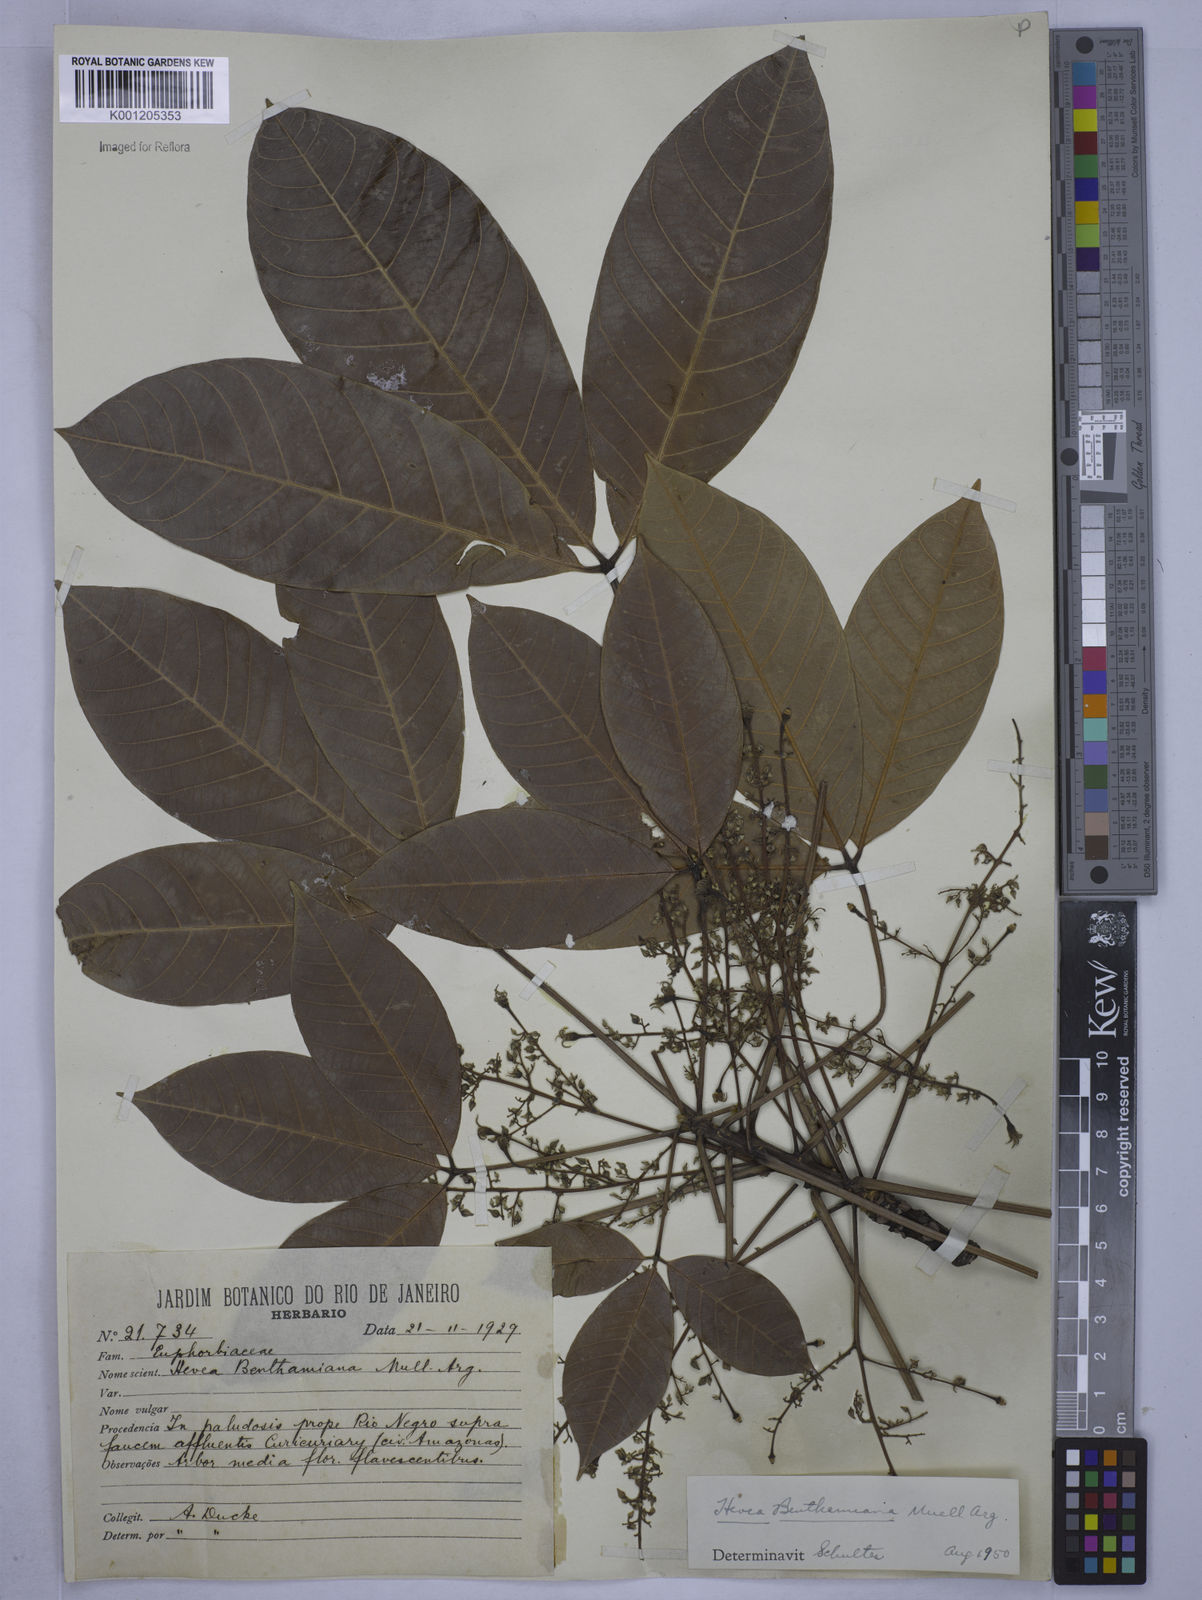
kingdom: Plantae
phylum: Tracheophyta
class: Magnoliopsida
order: Malpighiales
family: Euphorbiaceae
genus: Hevea
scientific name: Hevea
